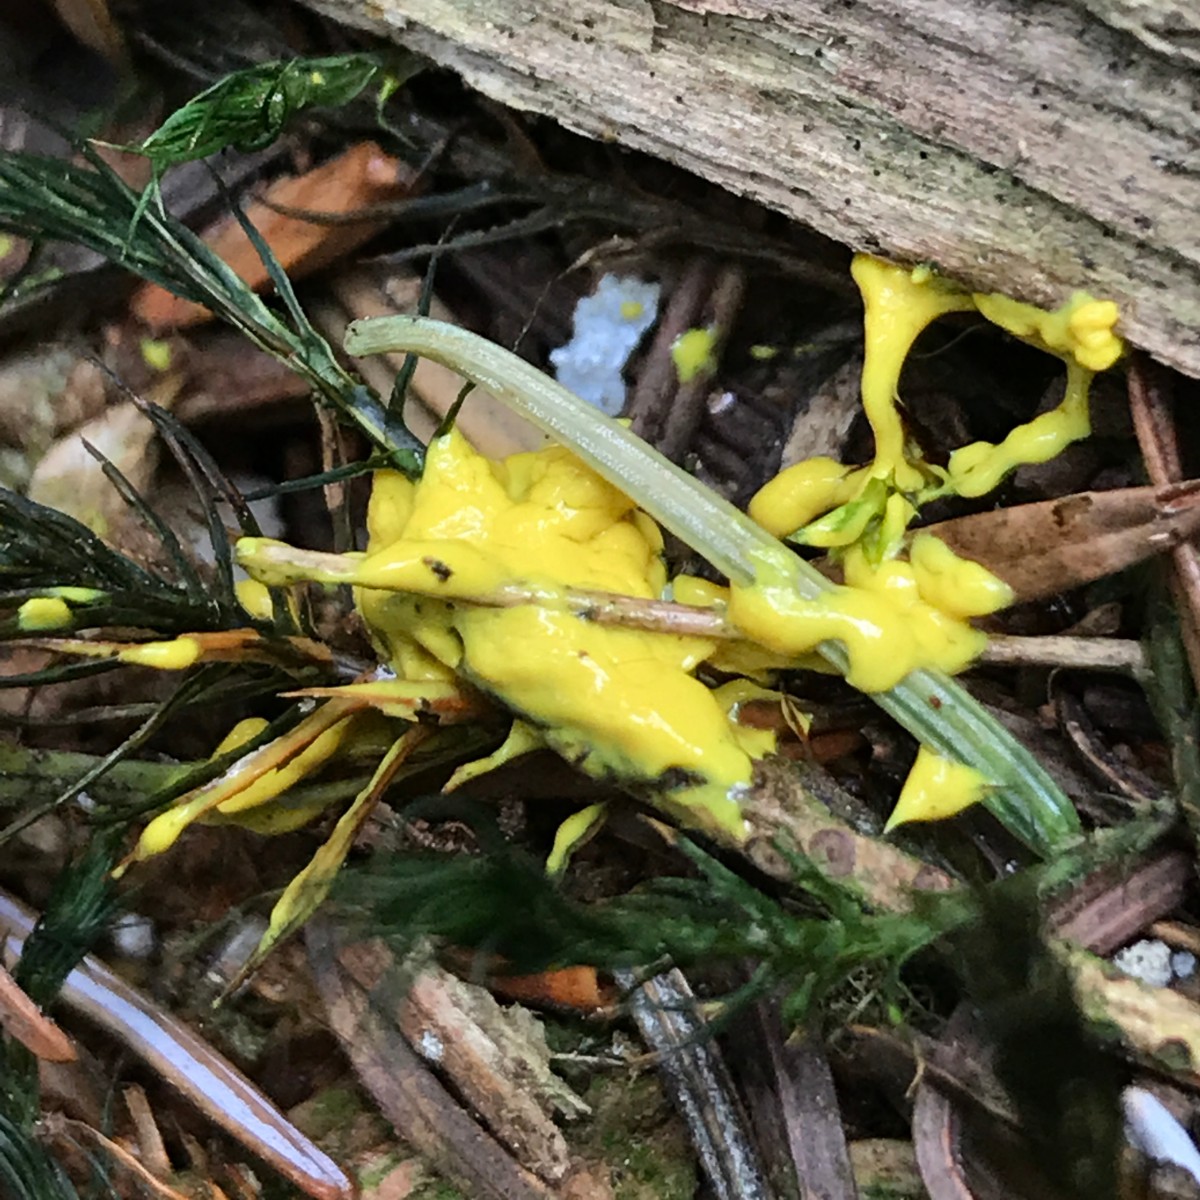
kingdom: Protozoa
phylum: Mycetozoa
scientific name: Mycetozoa
